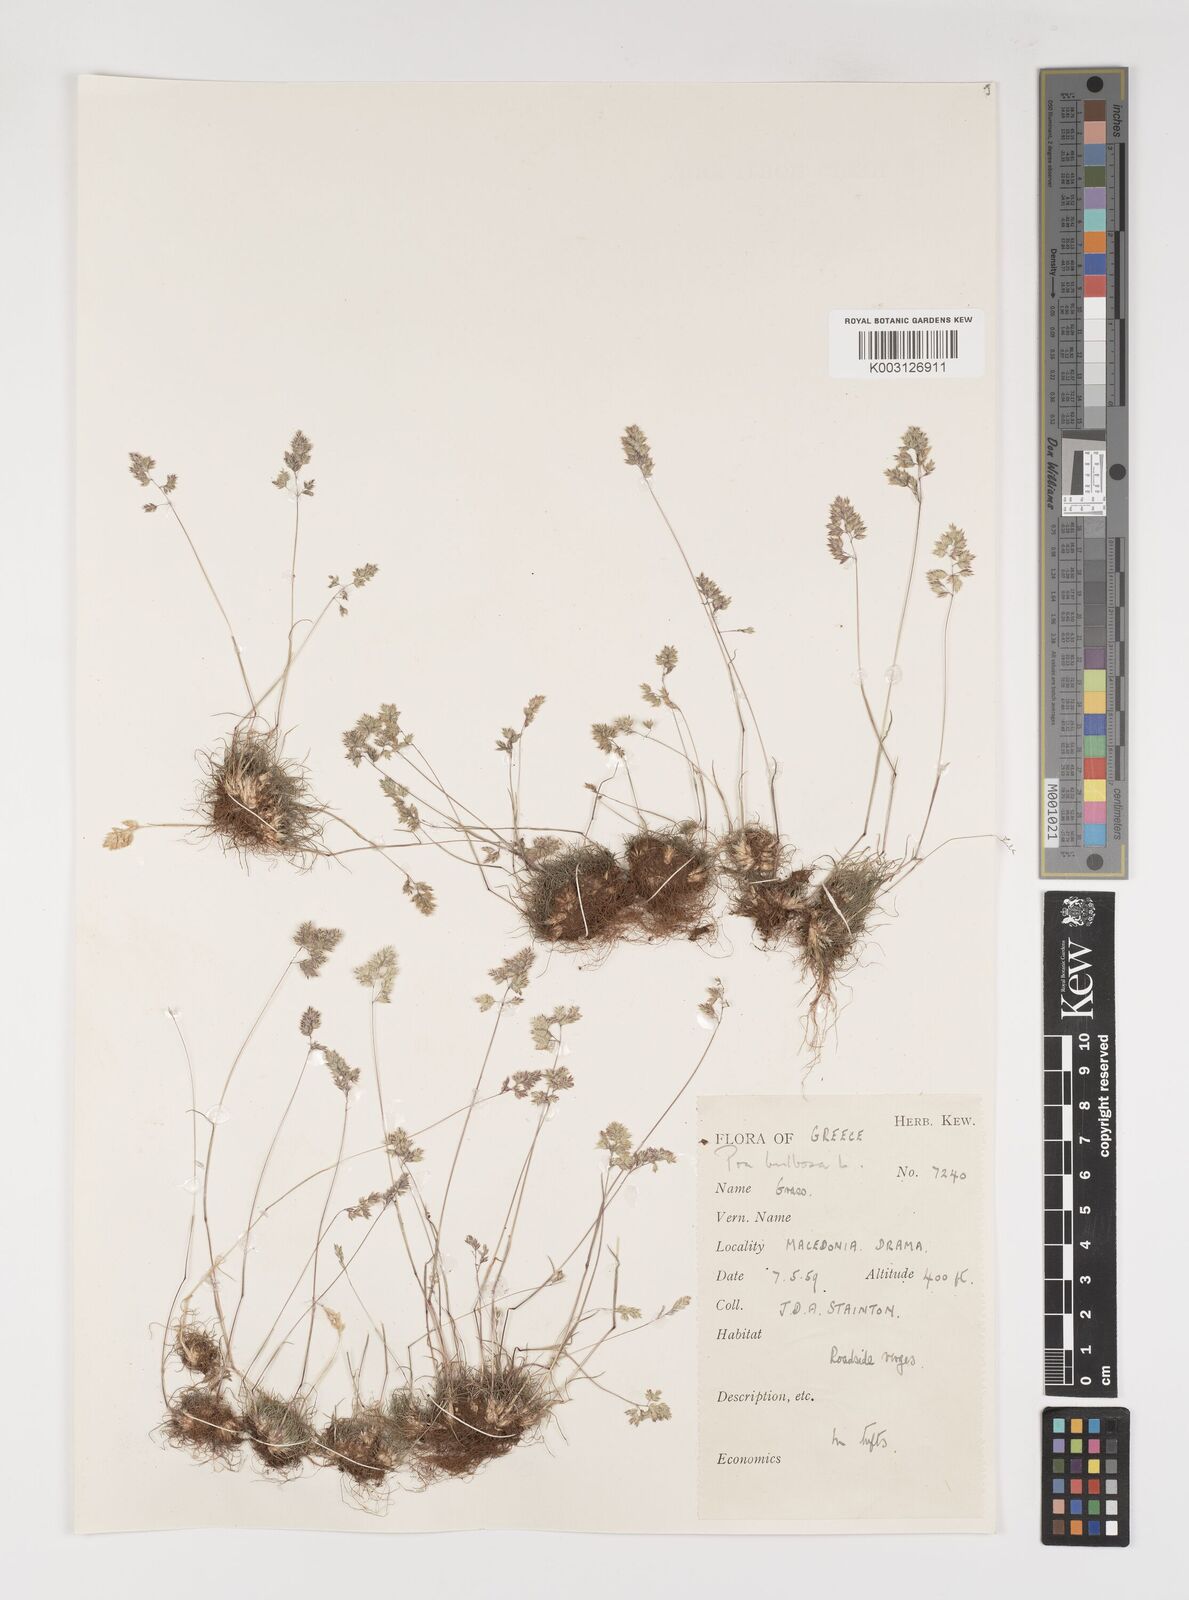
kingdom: Plantae
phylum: Tracheophyta
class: Liliopsida
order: Poales
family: Poaceae
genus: Poa
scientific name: Poa bulbosa
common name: Bulbous bluegrass
